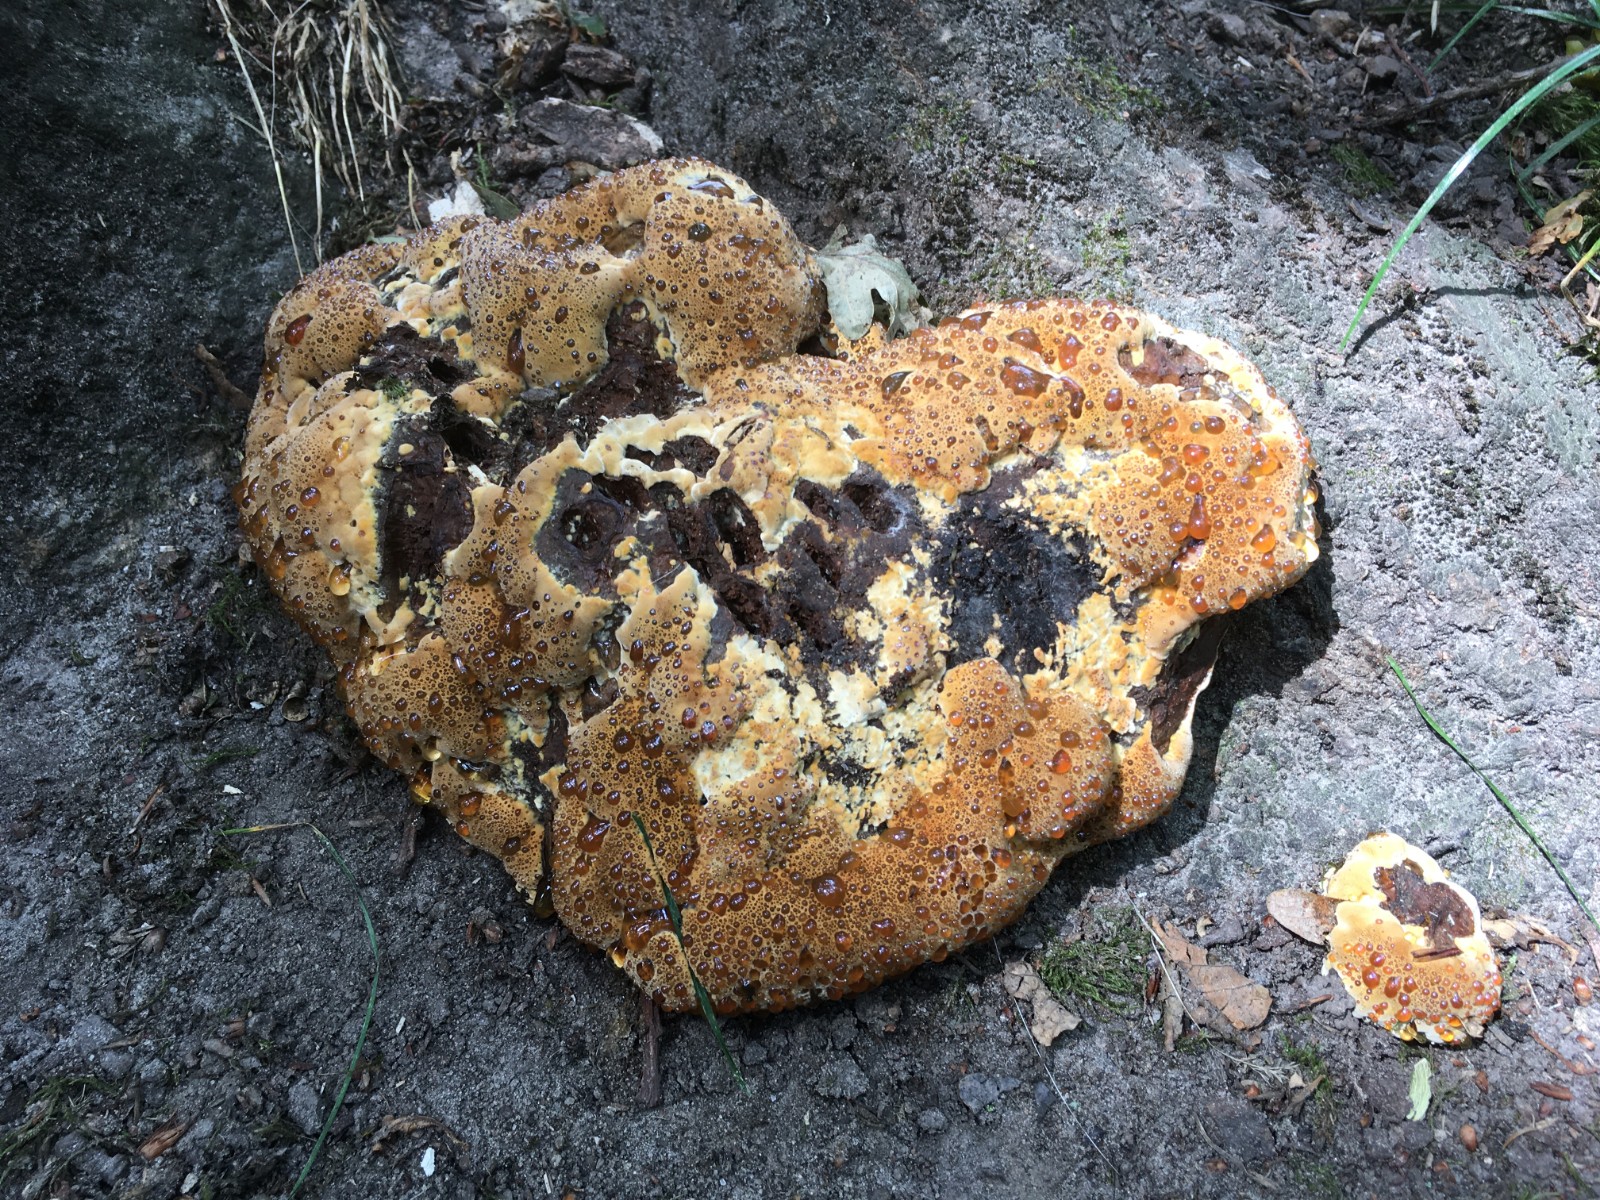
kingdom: Fungi
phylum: Basidiomycota
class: Agaricomycetes
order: Hymenochaetales
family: Hymenochaetaceae
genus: Pseudoinonotus
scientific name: Pseudoinonotus dryadeus
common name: ege-spejlporesvamp
